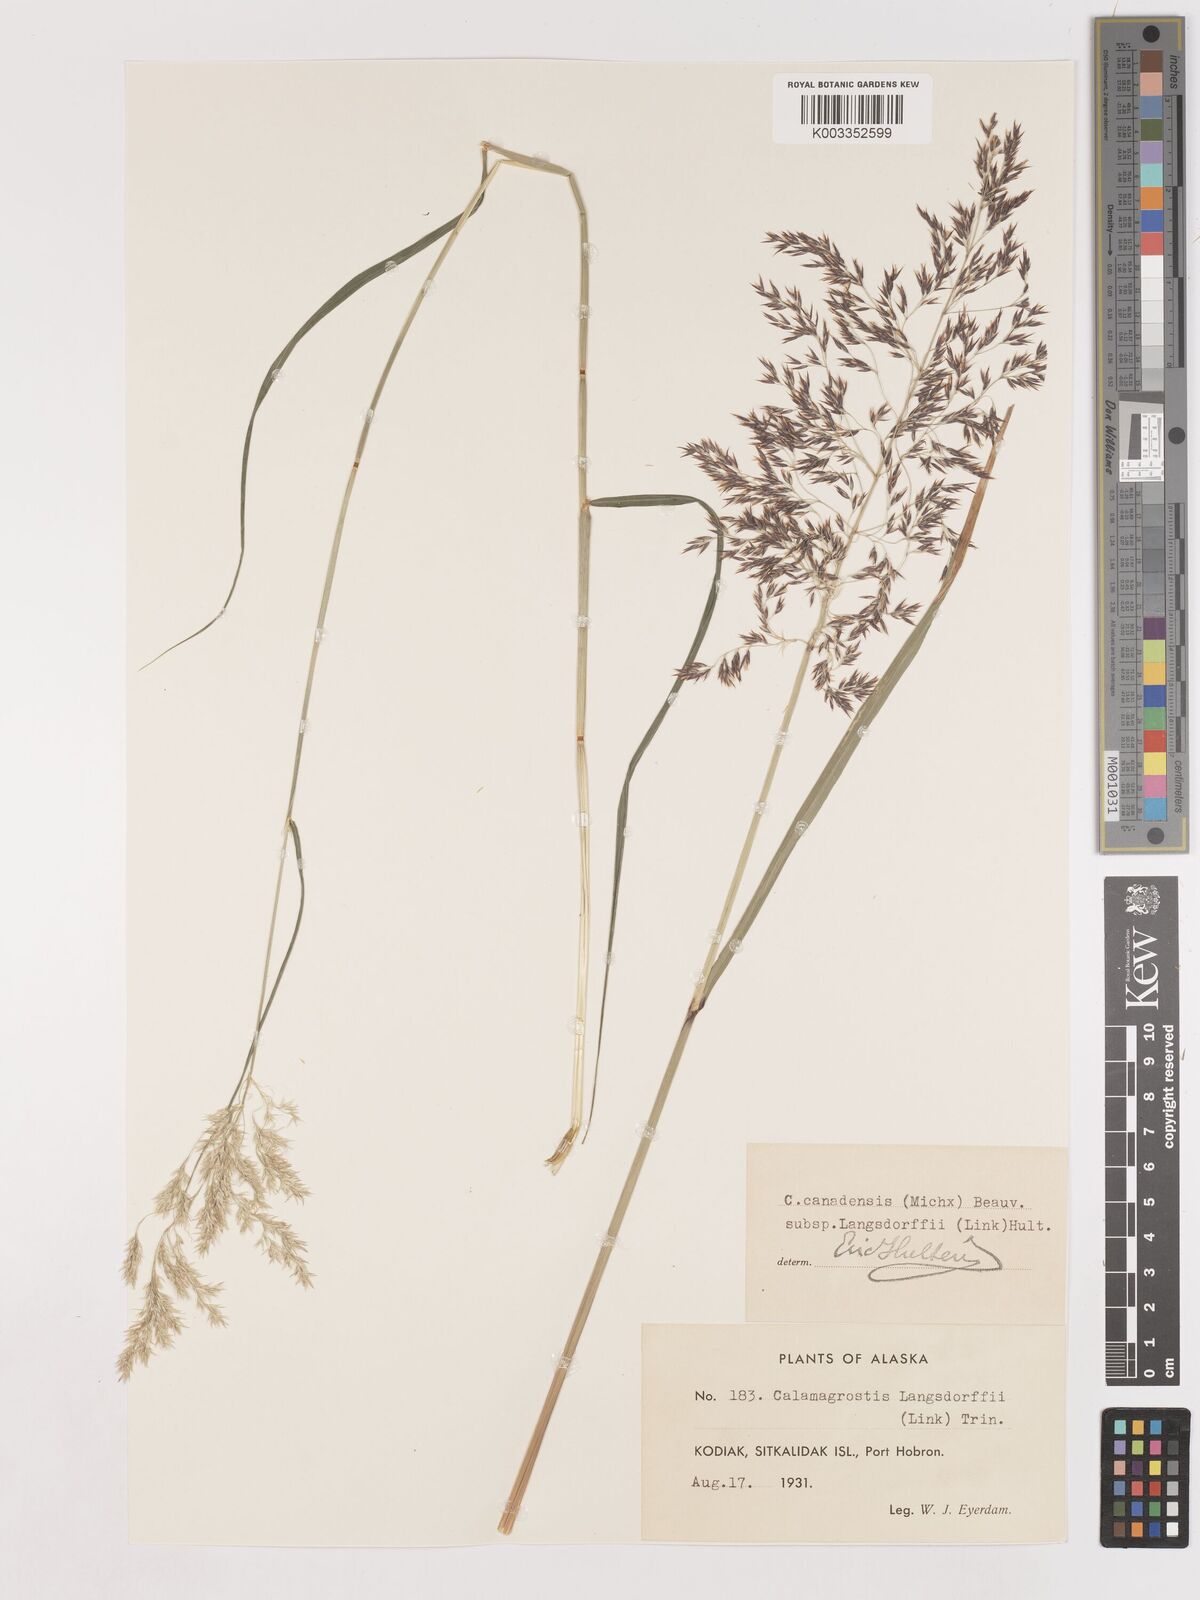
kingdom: Plantae
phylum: Tracheophyta
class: Liliopsida
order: Poales
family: Poaceae
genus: Calamagrostis
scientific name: Calamagrostis canadensis
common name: Canada bluejoint
